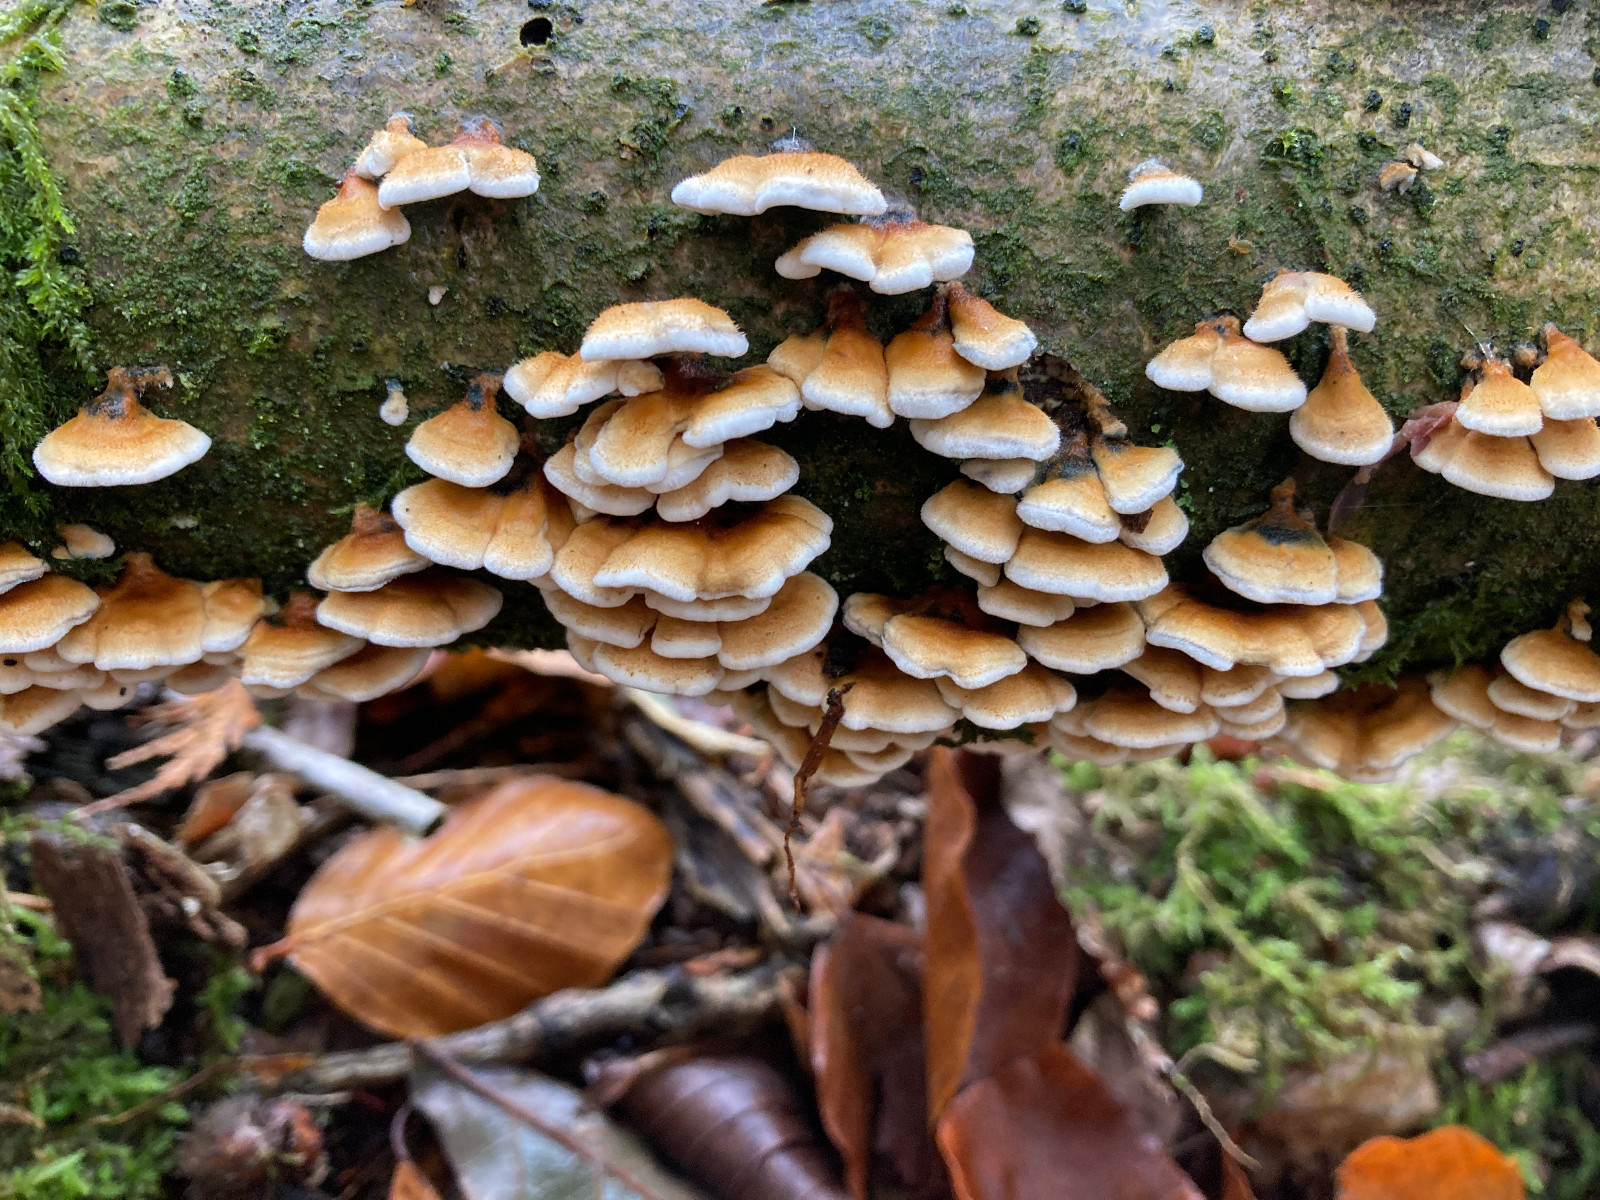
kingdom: Fungi
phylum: Basidiomycota
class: Agaricomycetes
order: Amylocorticiales
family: Amylocorticiaceae
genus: Plicaturopsis
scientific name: Plicaturopsis crispa
